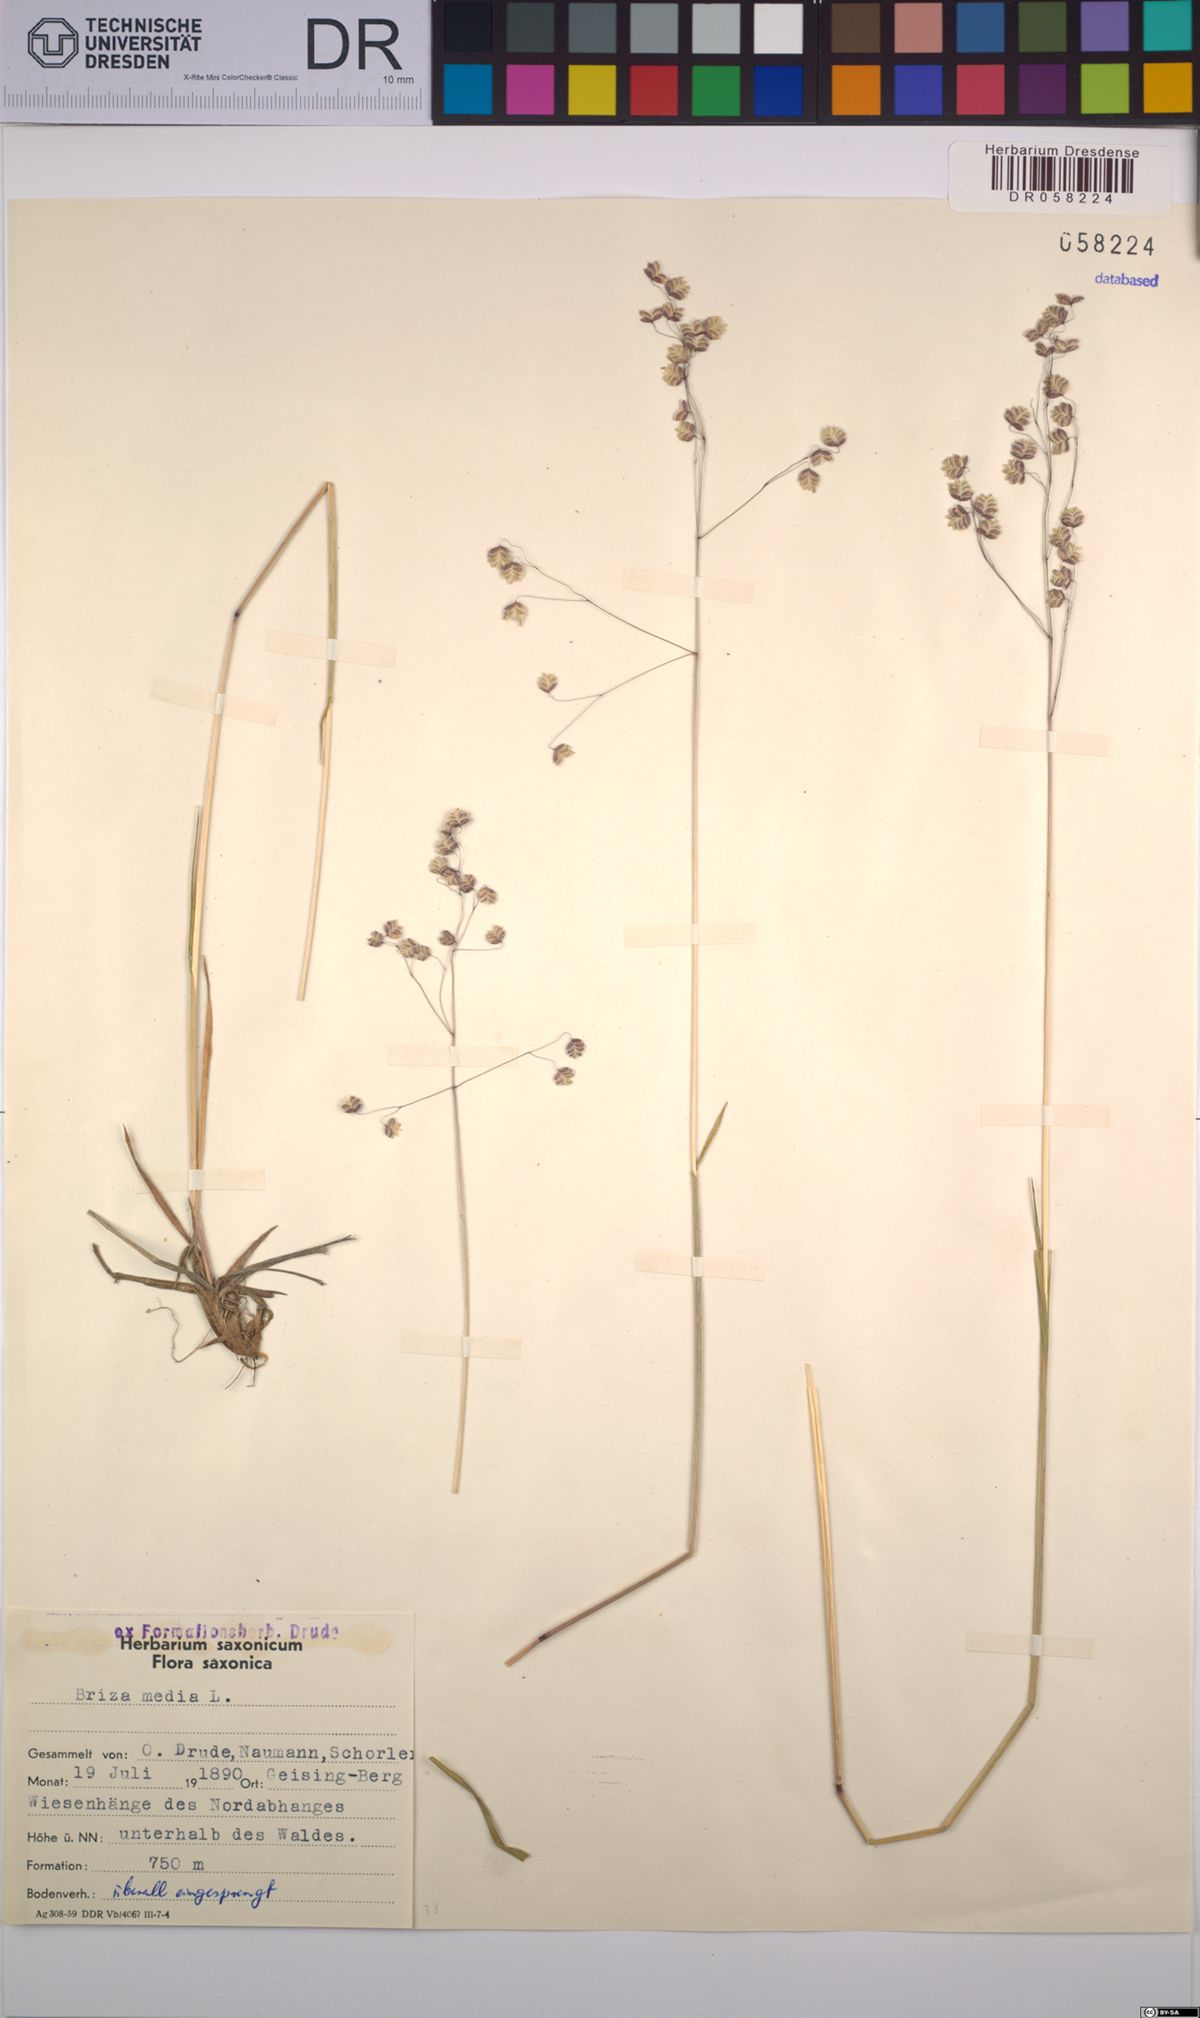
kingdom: Plantae
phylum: Tracheophyta
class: Liliopsida
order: Poales
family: Poaceae
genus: Briza
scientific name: Briza media
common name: Quaking grass
